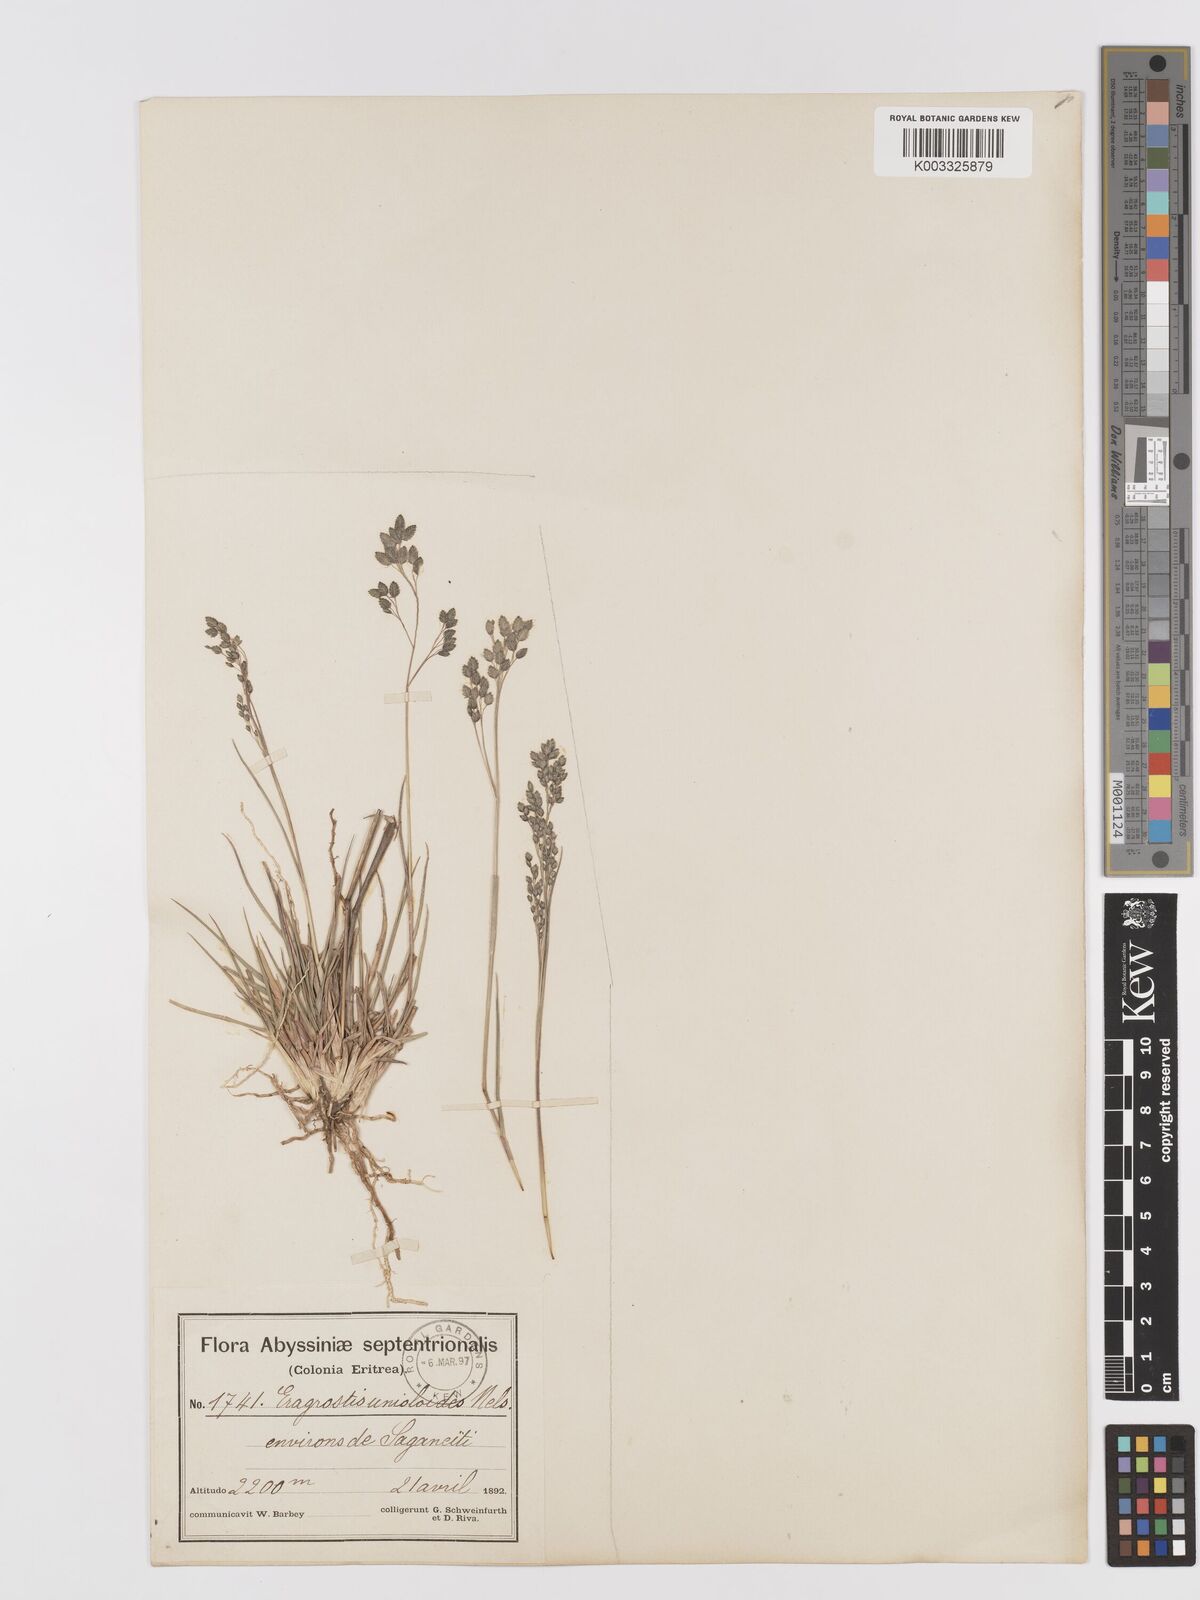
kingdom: Plantae
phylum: Tracheophyta
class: Liliopsida
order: Poales
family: Poaceae
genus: Eragrostis
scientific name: Eragrostis paniciformis
